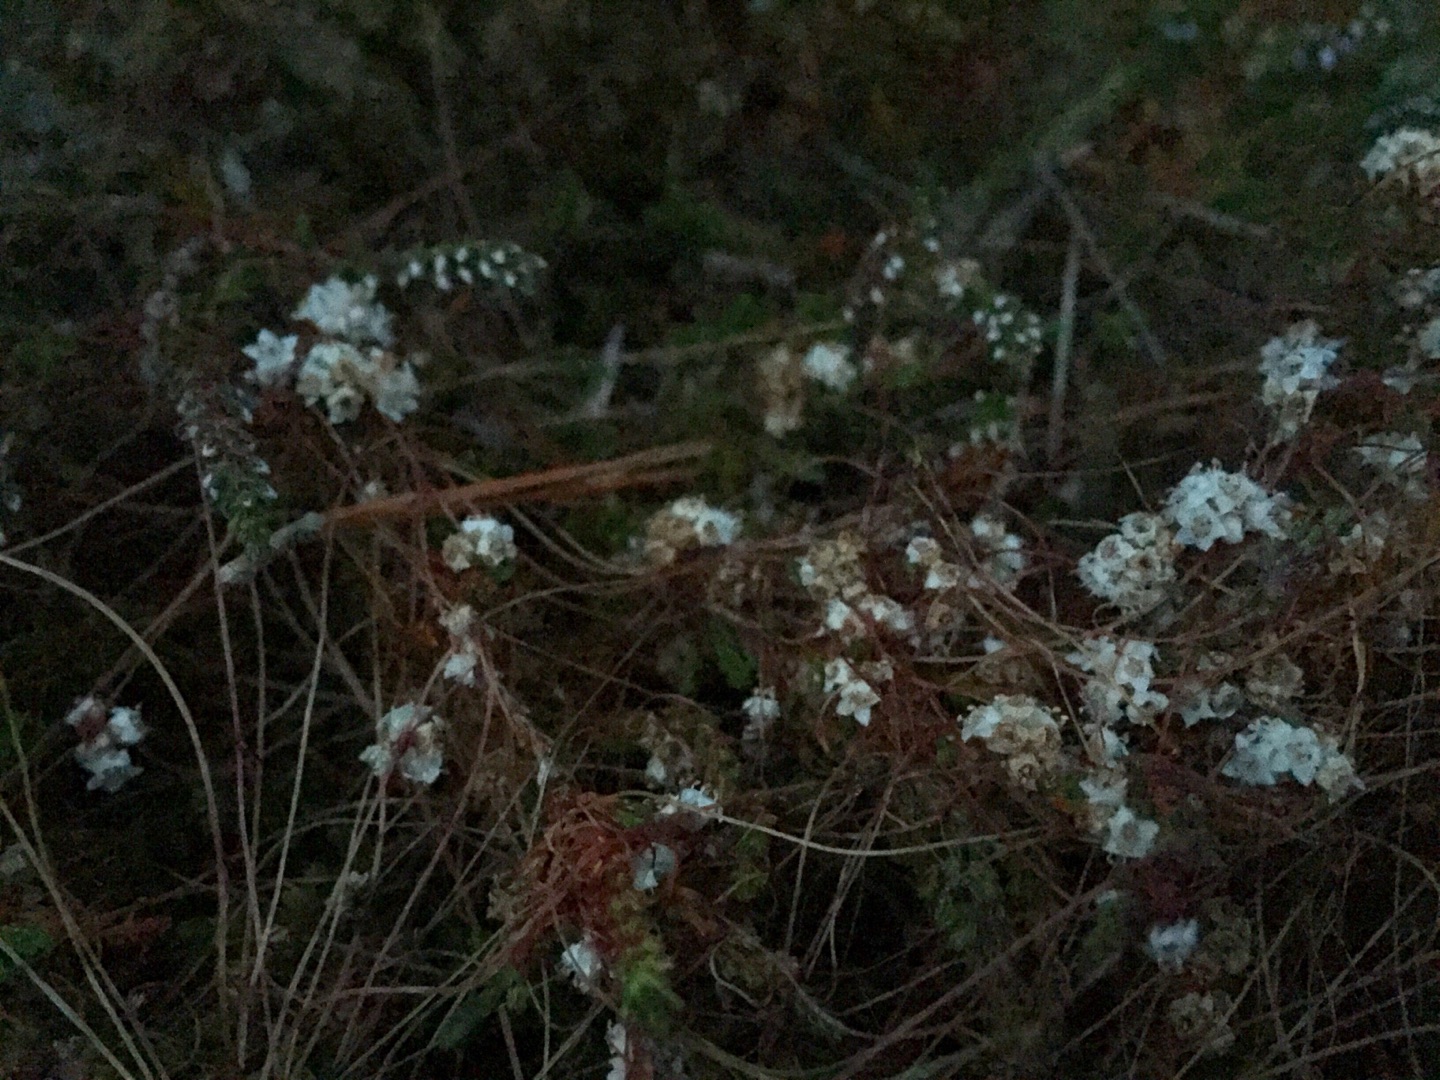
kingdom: Plantae
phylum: Tracheophyta
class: Magnoliopsida
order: Solanales
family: Convolvulaceae
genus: Cuscuta
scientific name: Cuscuta epithymum
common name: Lyng-silke
